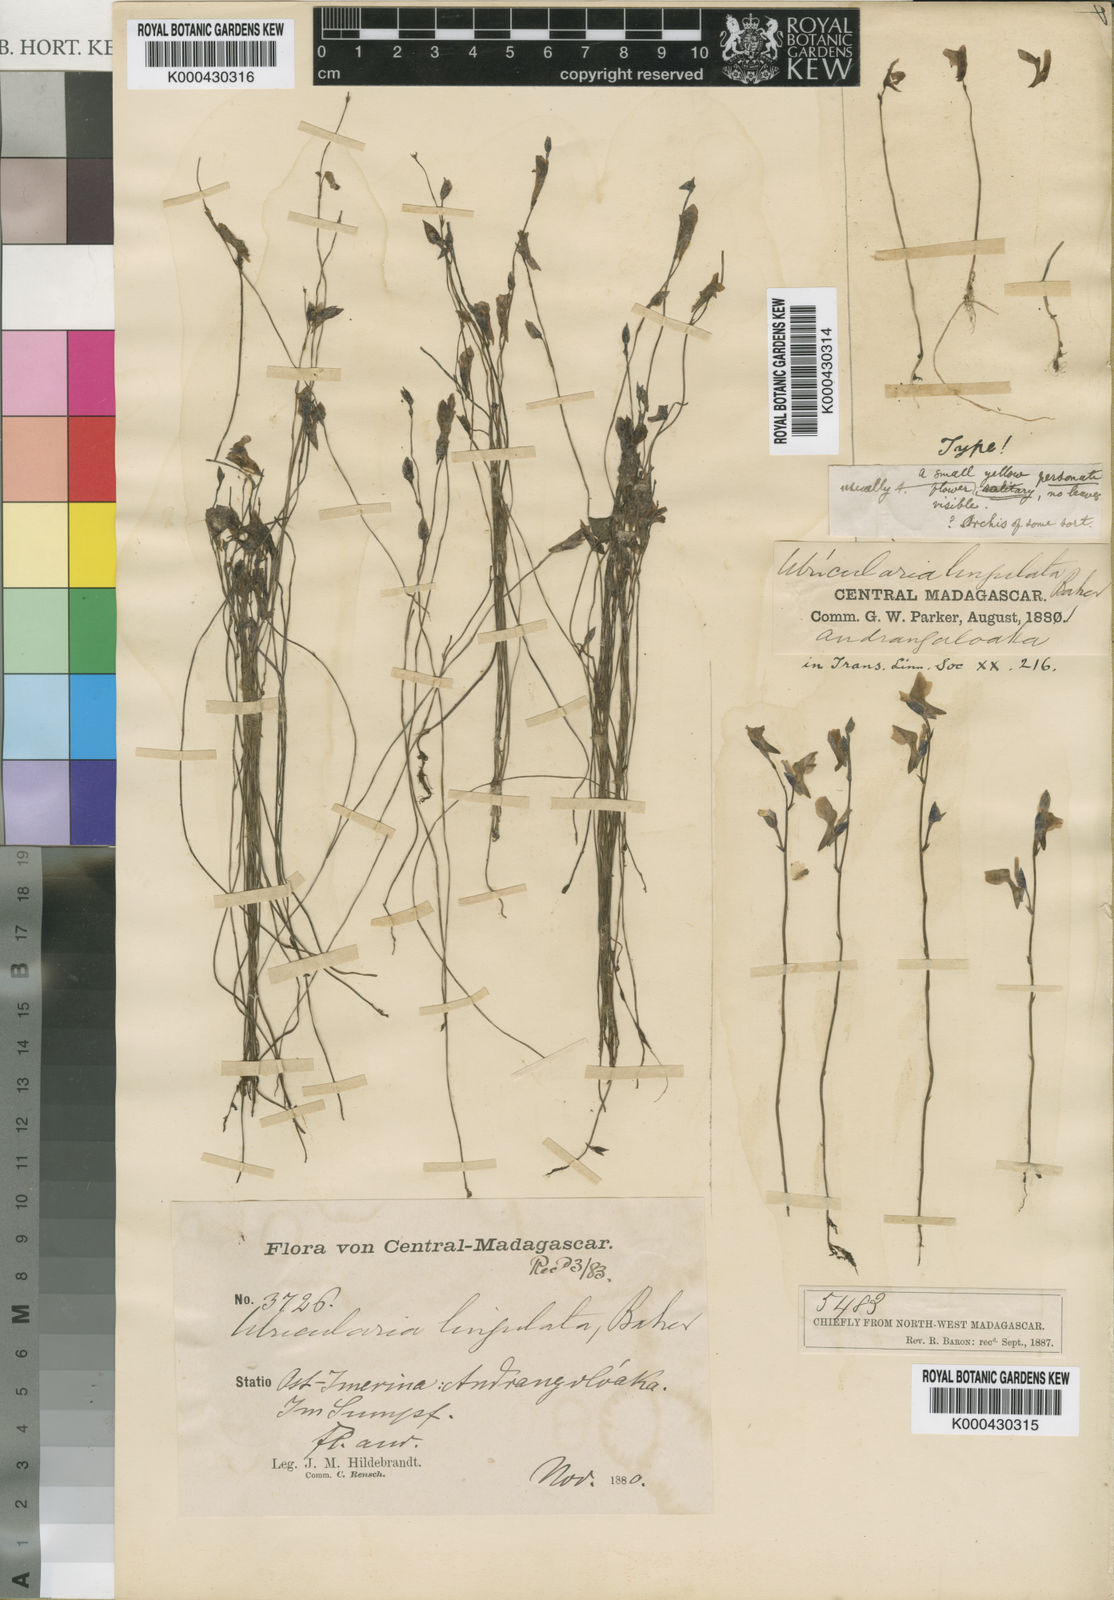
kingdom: Plantae
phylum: Tracheophyta
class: Magnoliopsida
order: Lamiales
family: Lentibulariaceae
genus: Utricularia
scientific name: Utricularia prehensilis
